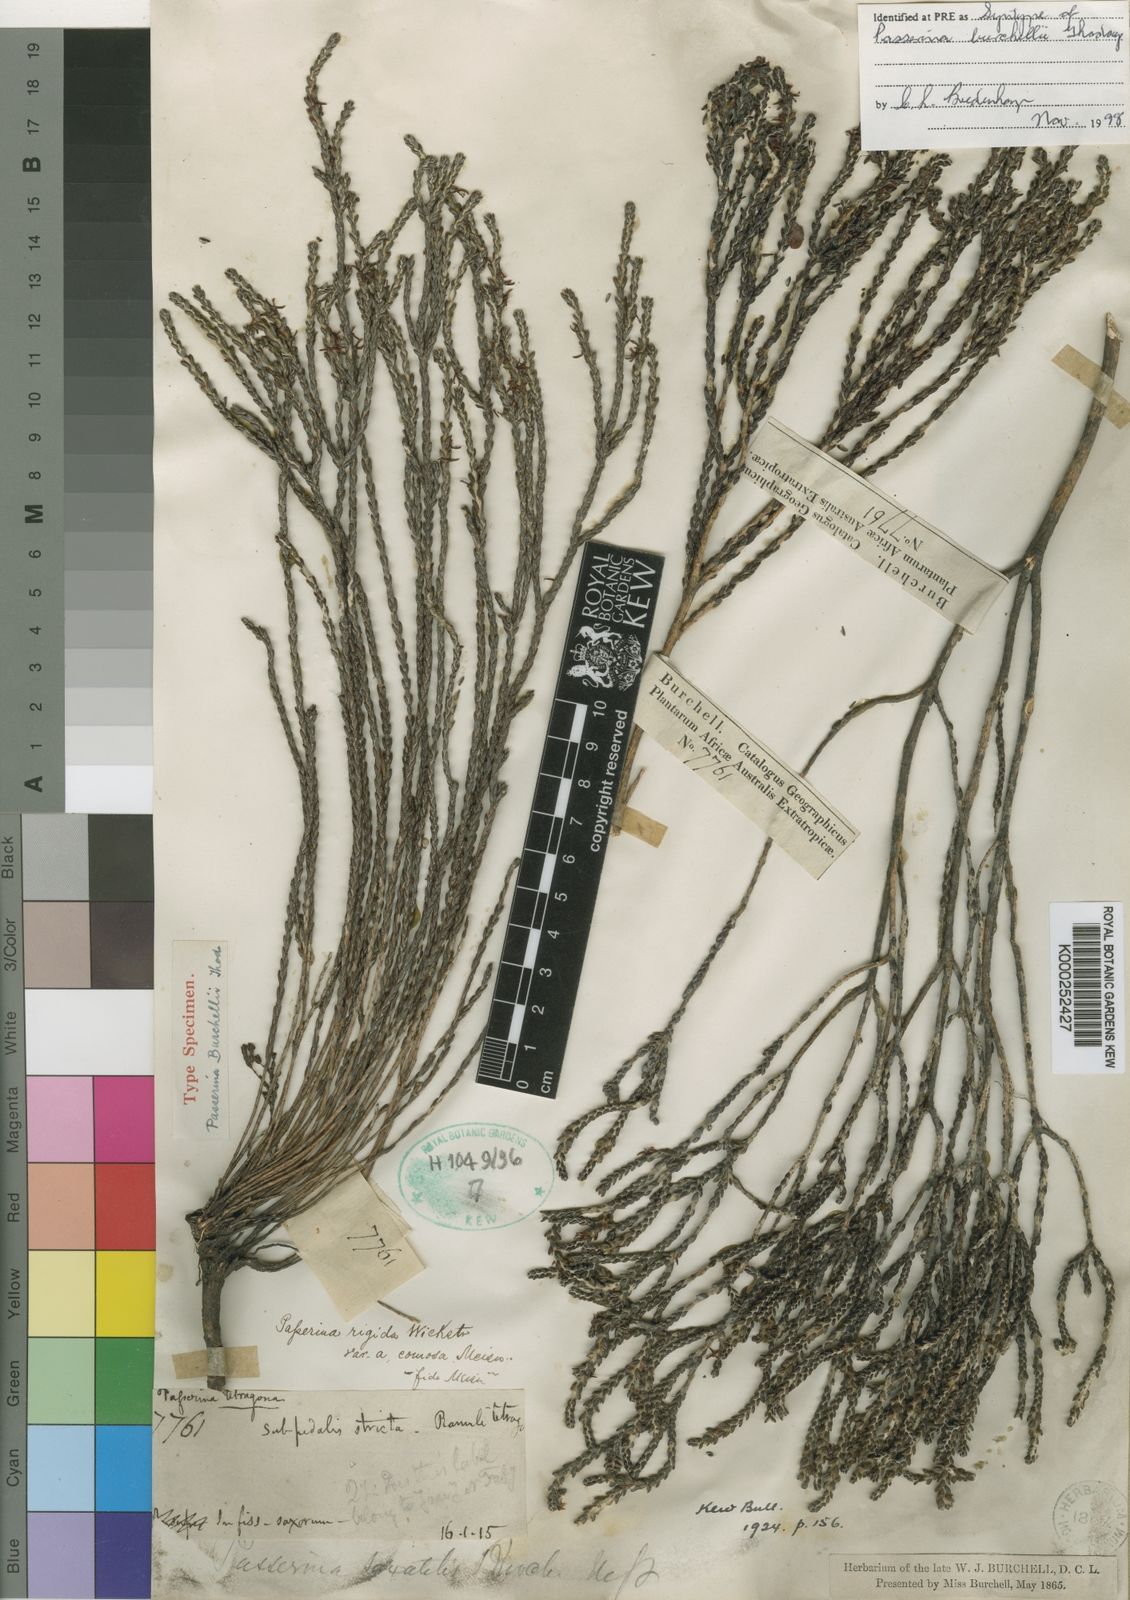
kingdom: Plantae
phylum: Tracheophyta
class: Magnoliopsida
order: Malvales
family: Thymelaeaceae
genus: Passerina
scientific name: Passerina burchellii
